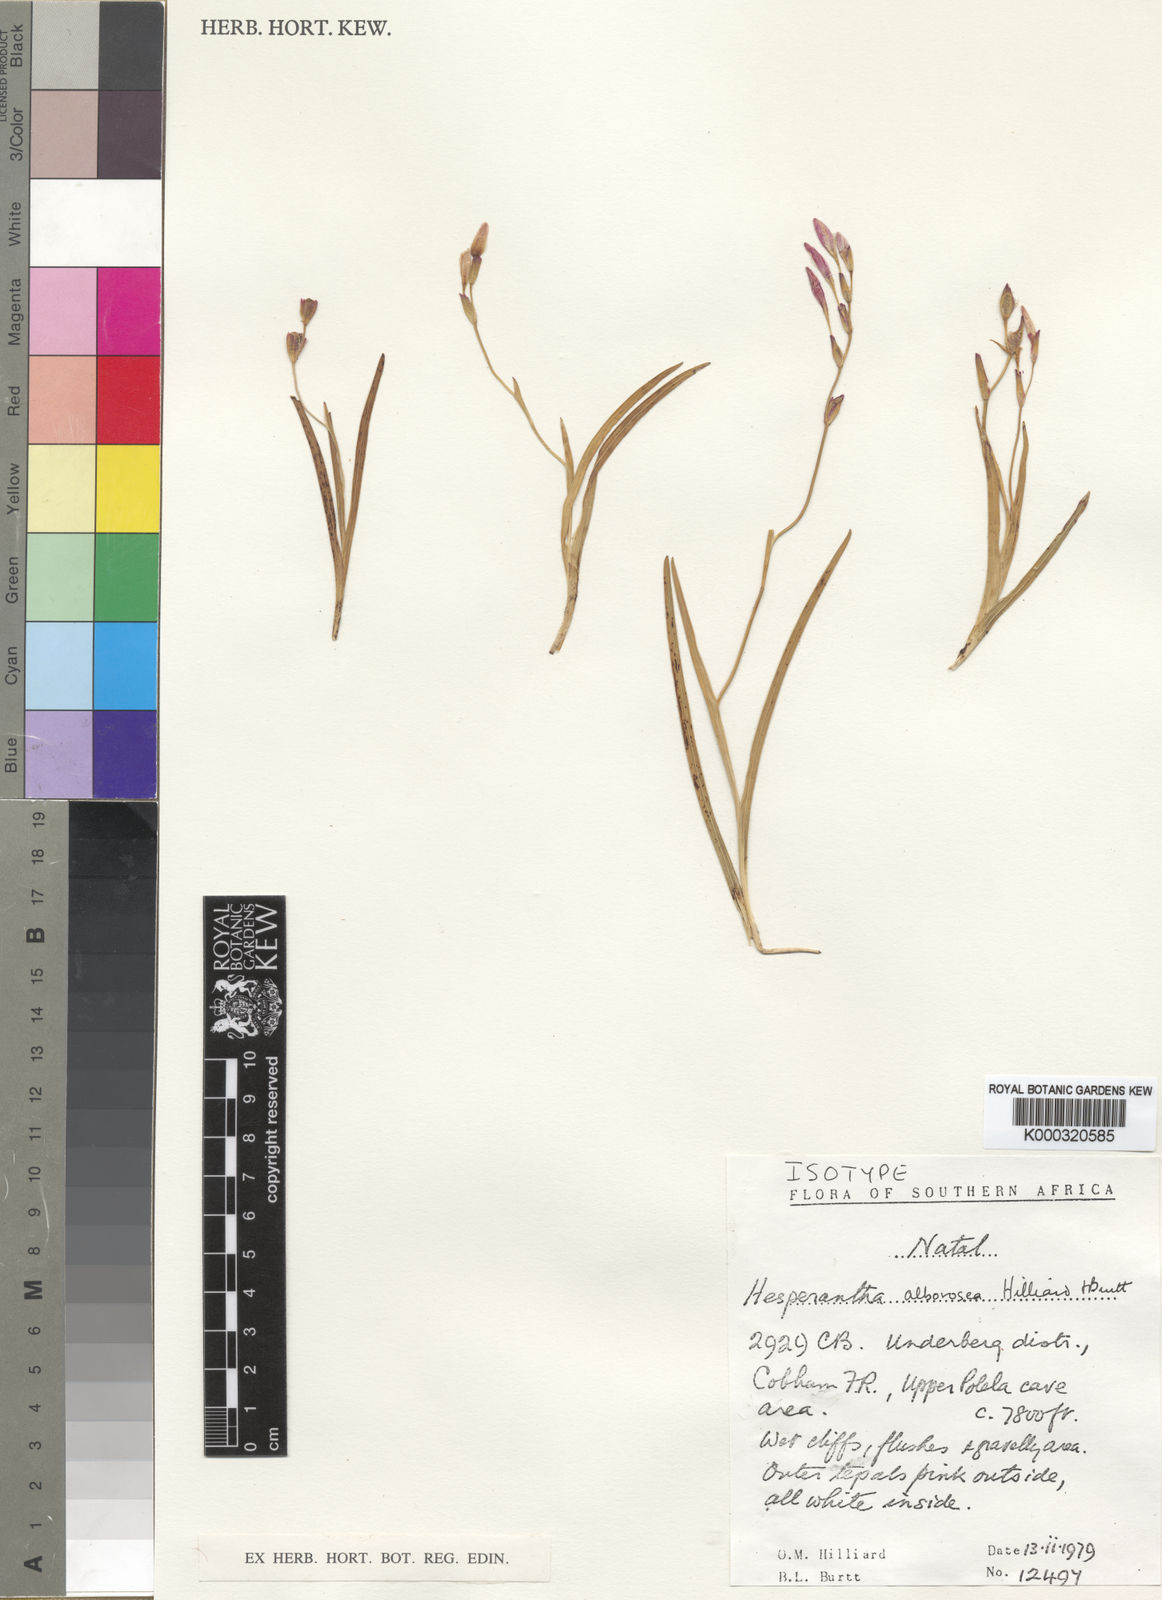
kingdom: Plantae
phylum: Tracheophyta
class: Liliopsida
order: Asparagales
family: Iridaceae
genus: Hesperantha
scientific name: Hesperantha alborosea
